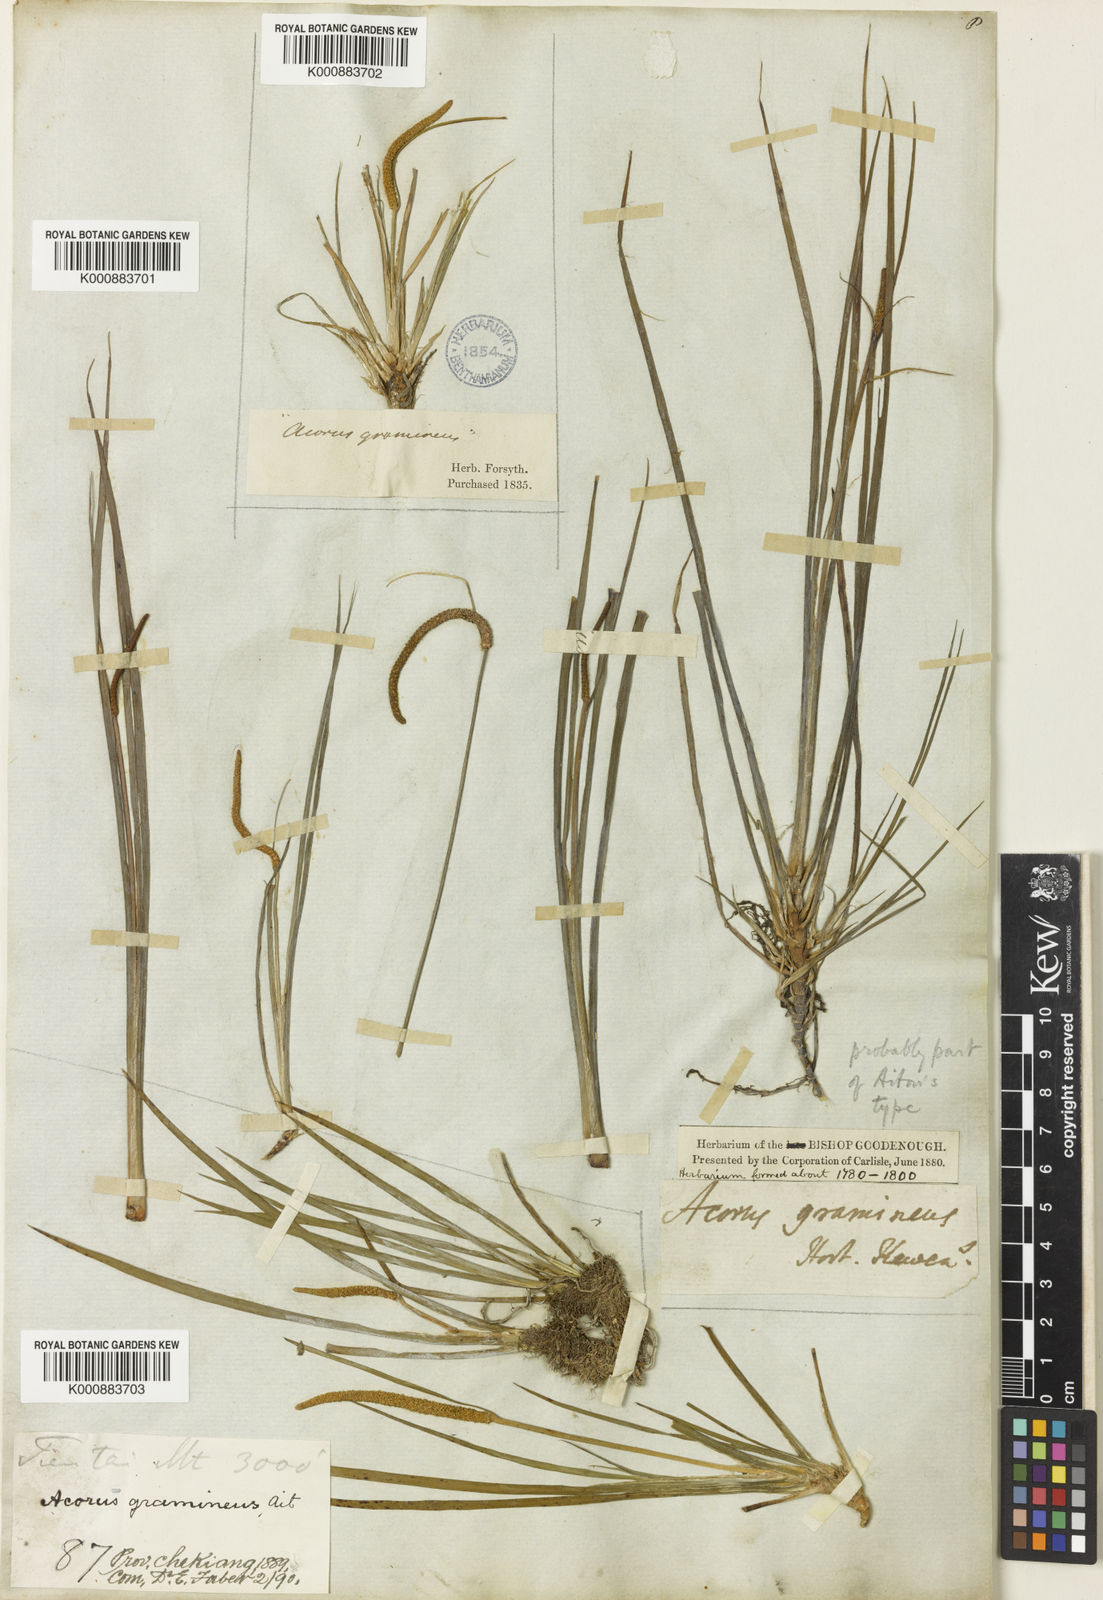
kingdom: Plantae
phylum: Tracheophyta
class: Liliopsida
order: Acorales
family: Acoraceae
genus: Acorus
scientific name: Acorus gramineus
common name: Slender sweet-flag
